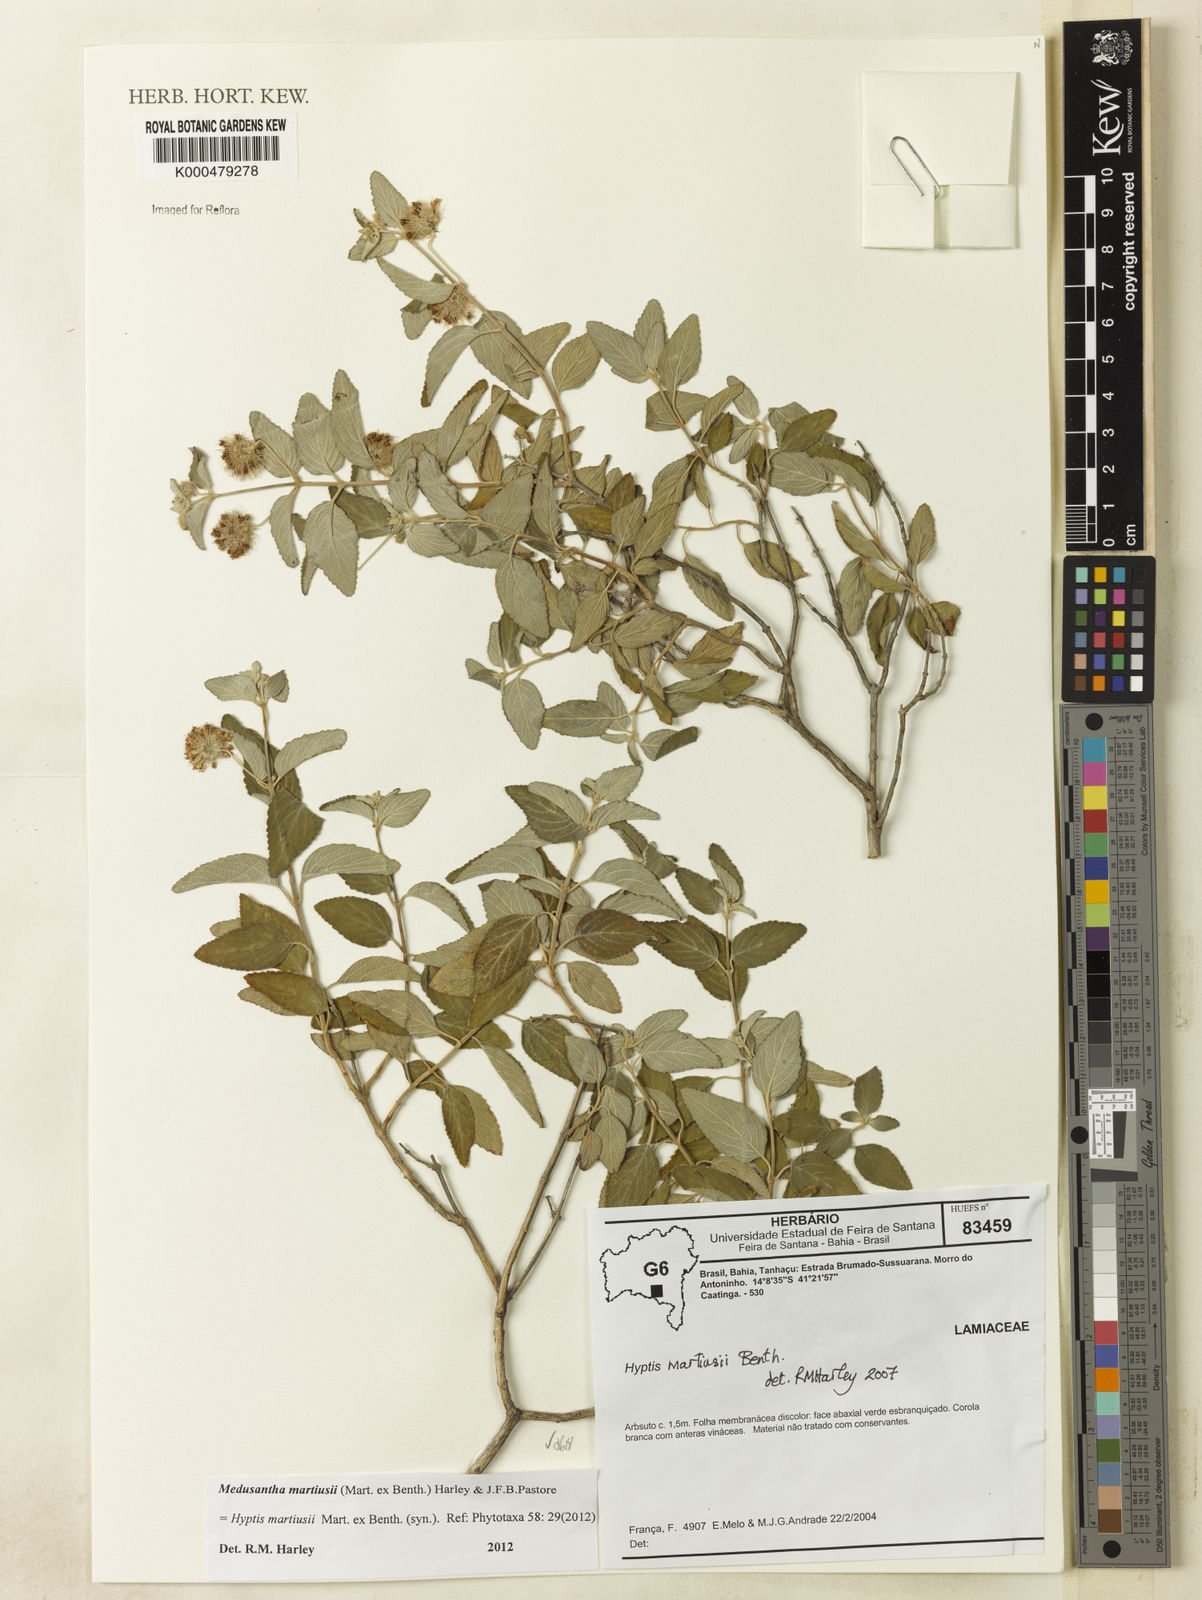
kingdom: Plantae
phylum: Tracheophyta
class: Magnoliopsida
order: Lamiales
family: Lamiaceae
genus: Medusantha
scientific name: Medusantha martiusii
